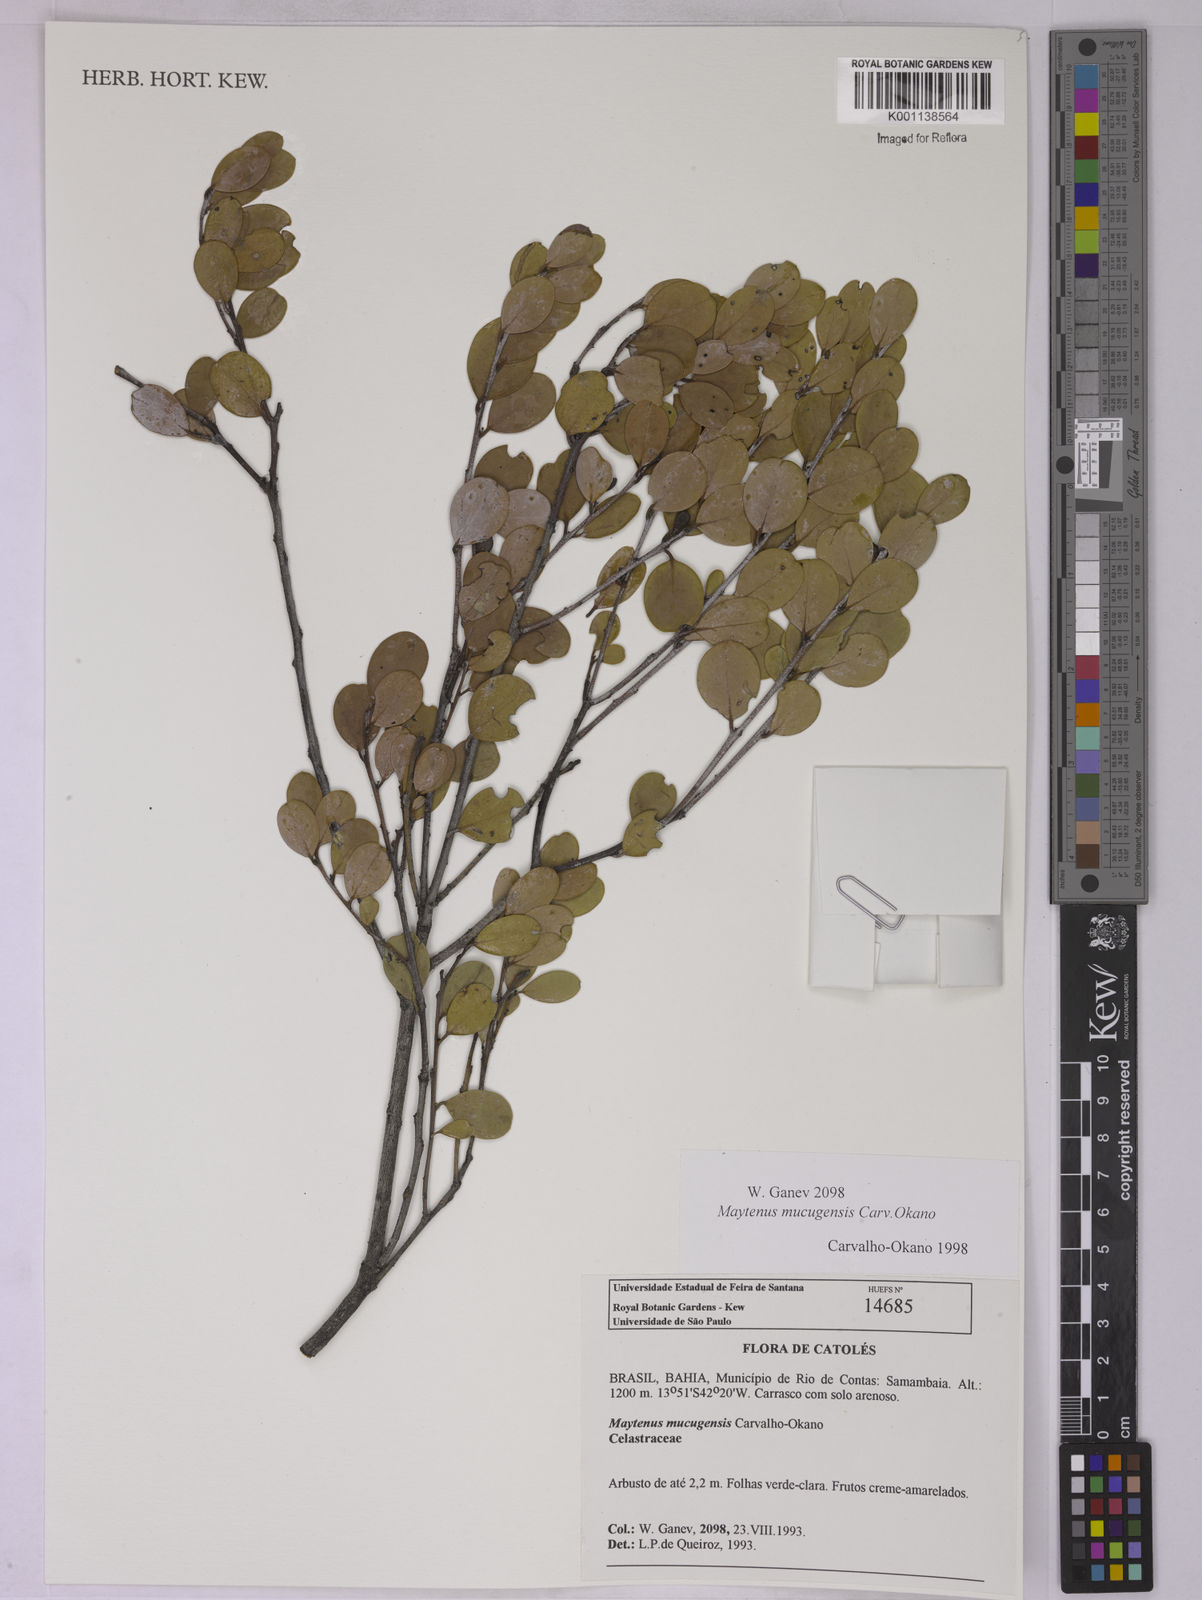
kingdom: Plantae
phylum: Tracheophyta
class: Magnoliopsida
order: Celastrales
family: Celastraceae
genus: Monteverdia
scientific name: Monteverdia mucugensis
